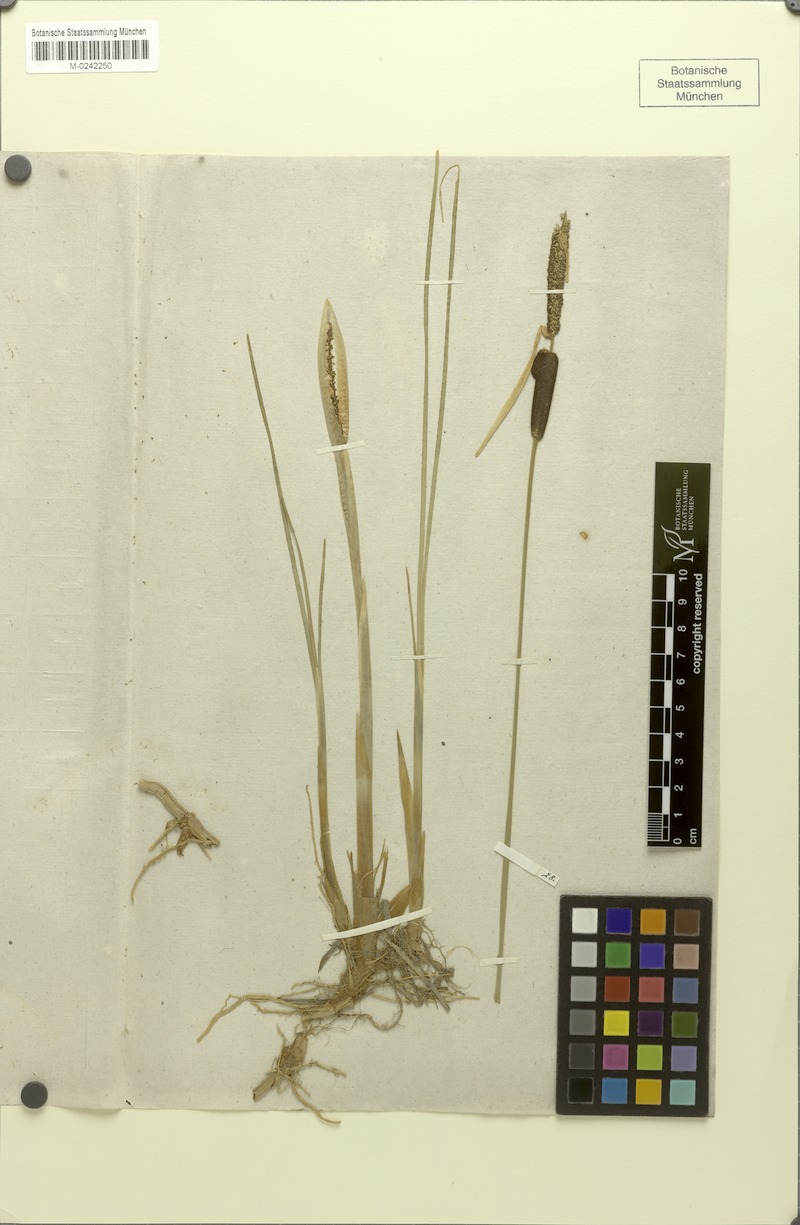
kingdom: Plantae
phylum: Tracheophyta
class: Liliopsida
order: Poales
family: Typhaceae
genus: Typha
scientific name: Typha minima
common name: Dwarf bulrush
